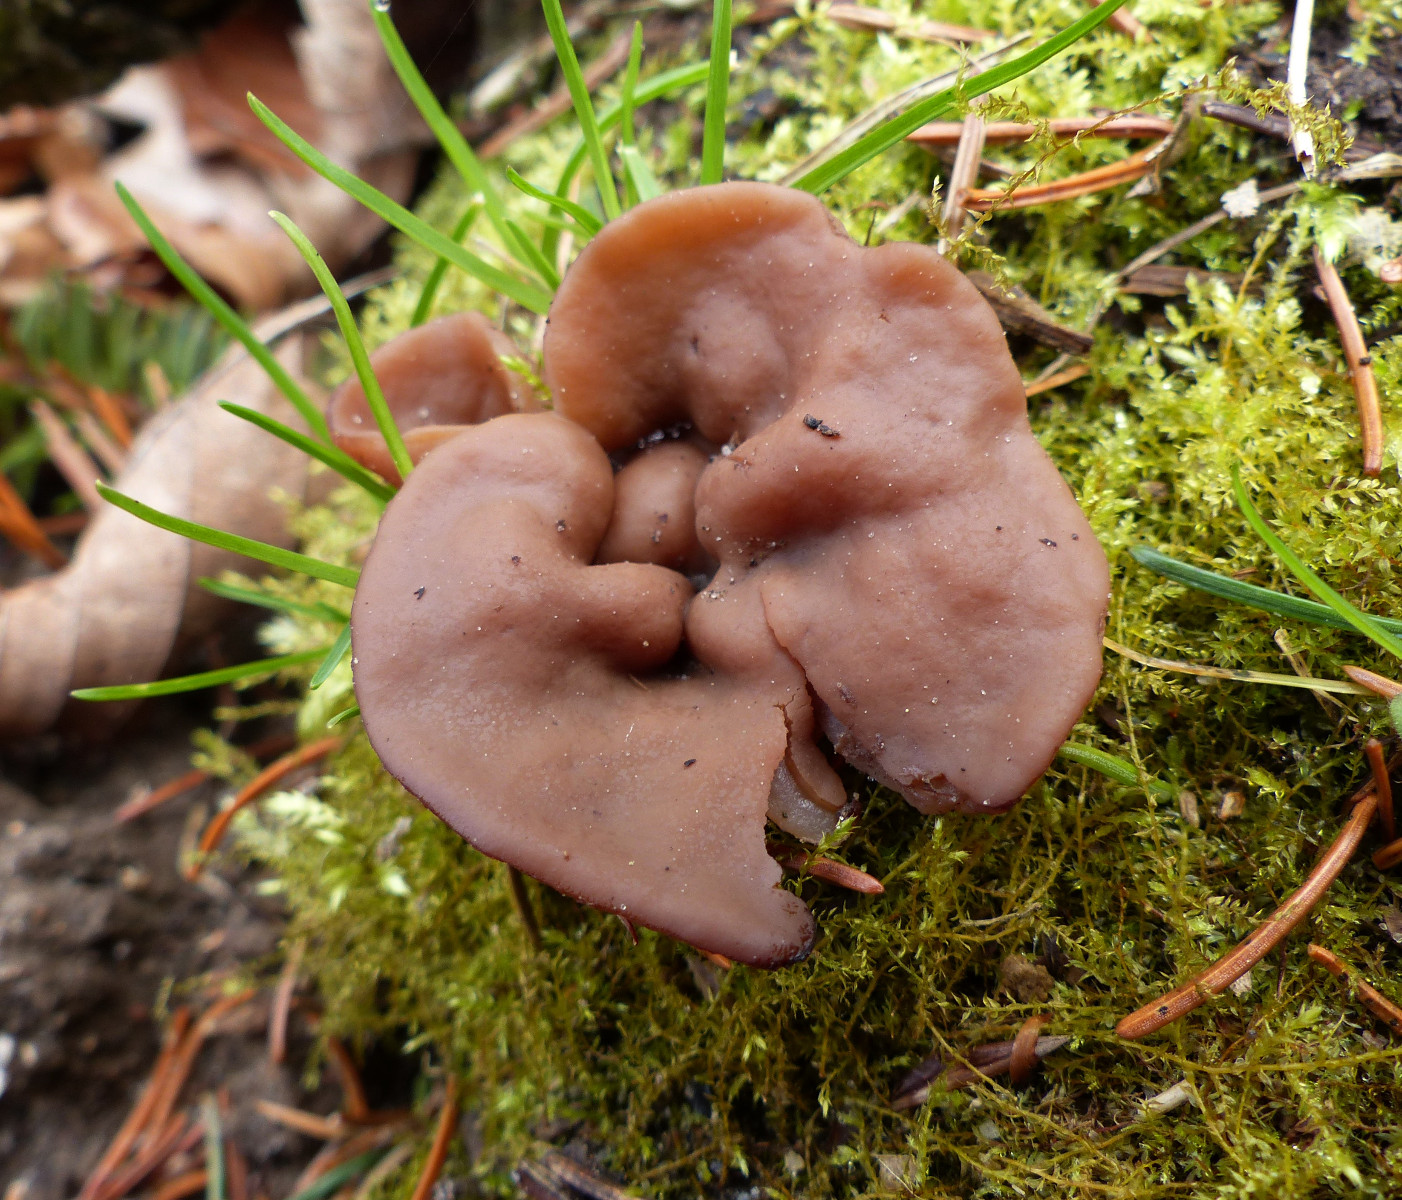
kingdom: Fungi
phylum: Ascomycota
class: Pezizomycetes
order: Pezizales
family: Discinaceae
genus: Discina
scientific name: Discina ancilis
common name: udbredt stenmorkel
